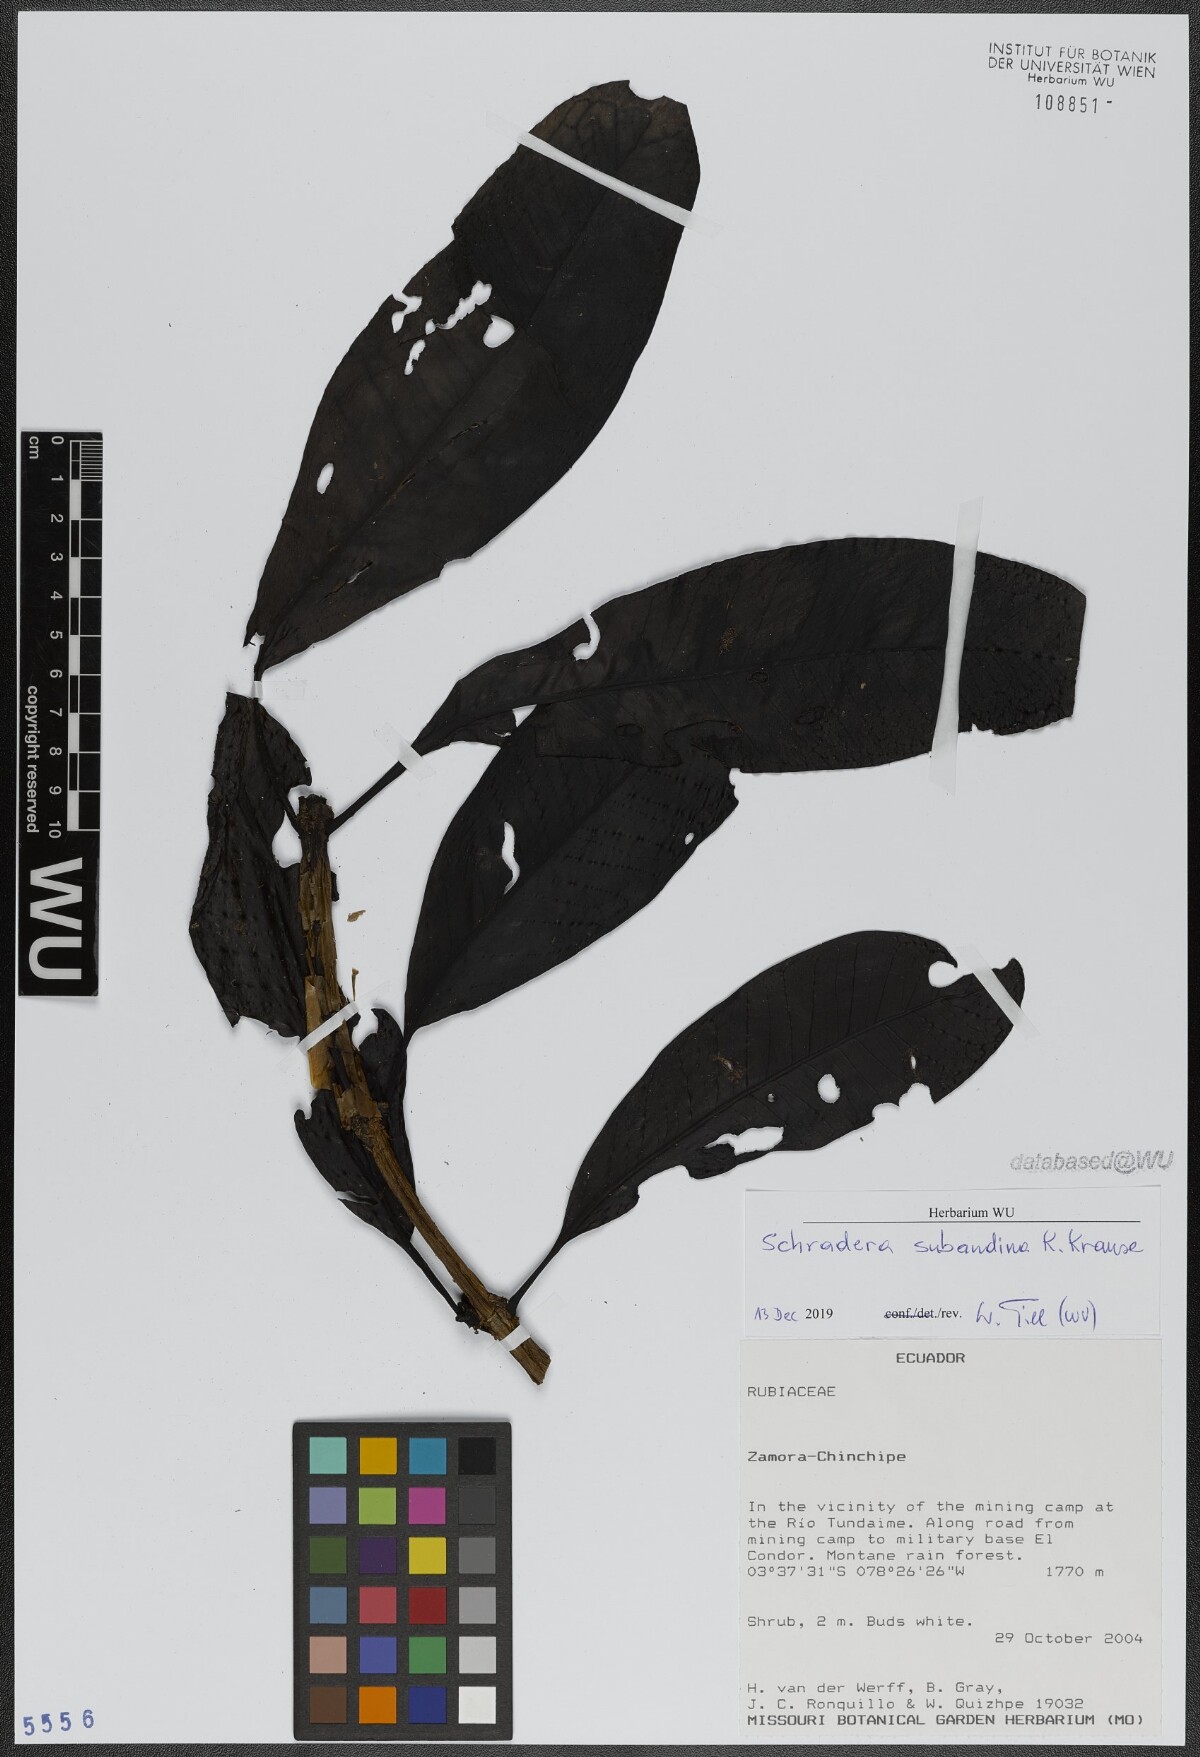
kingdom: Plantae
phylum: Tracheophyta
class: Magnoliopsida
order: Gentianales
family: Rubiaceae
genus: Schradera
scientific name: Schradera subandina
